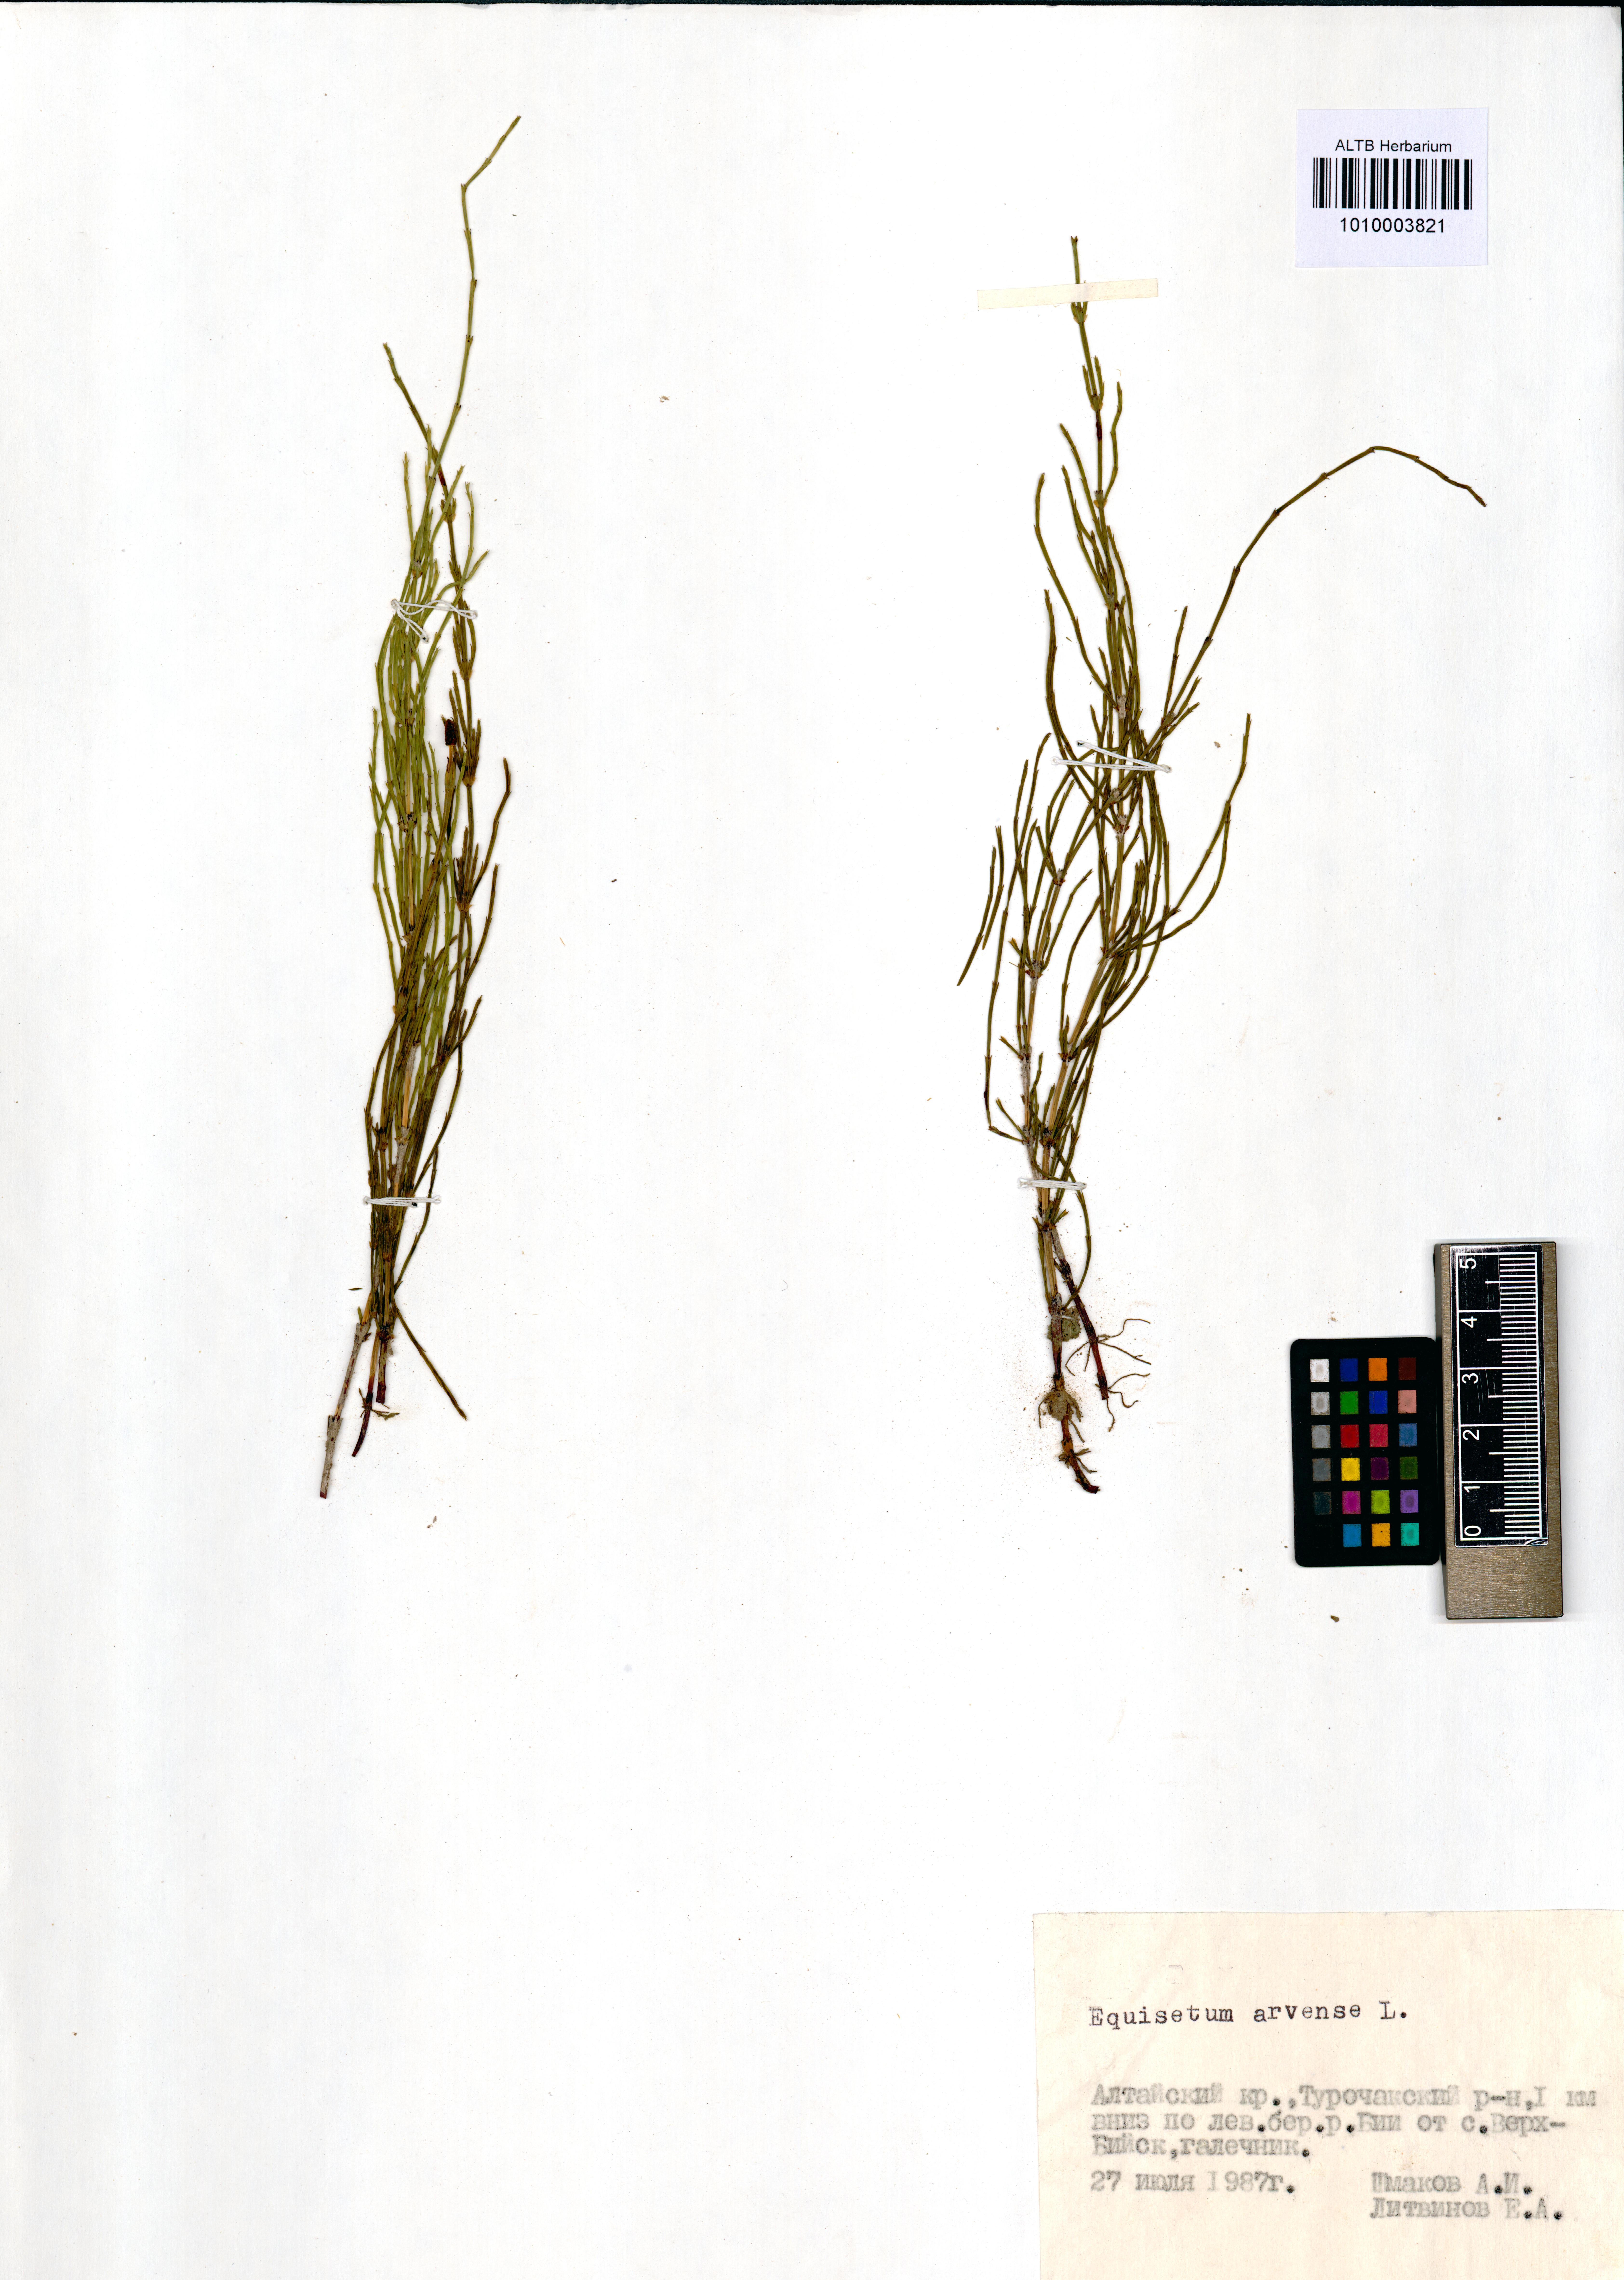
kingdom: Plantae
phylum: Tracheophyta
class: Polypodiopsida
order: Equisetales
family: Equisetaceae
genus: Equisetum
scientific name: Equisetum arvense
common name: Field horsetail
